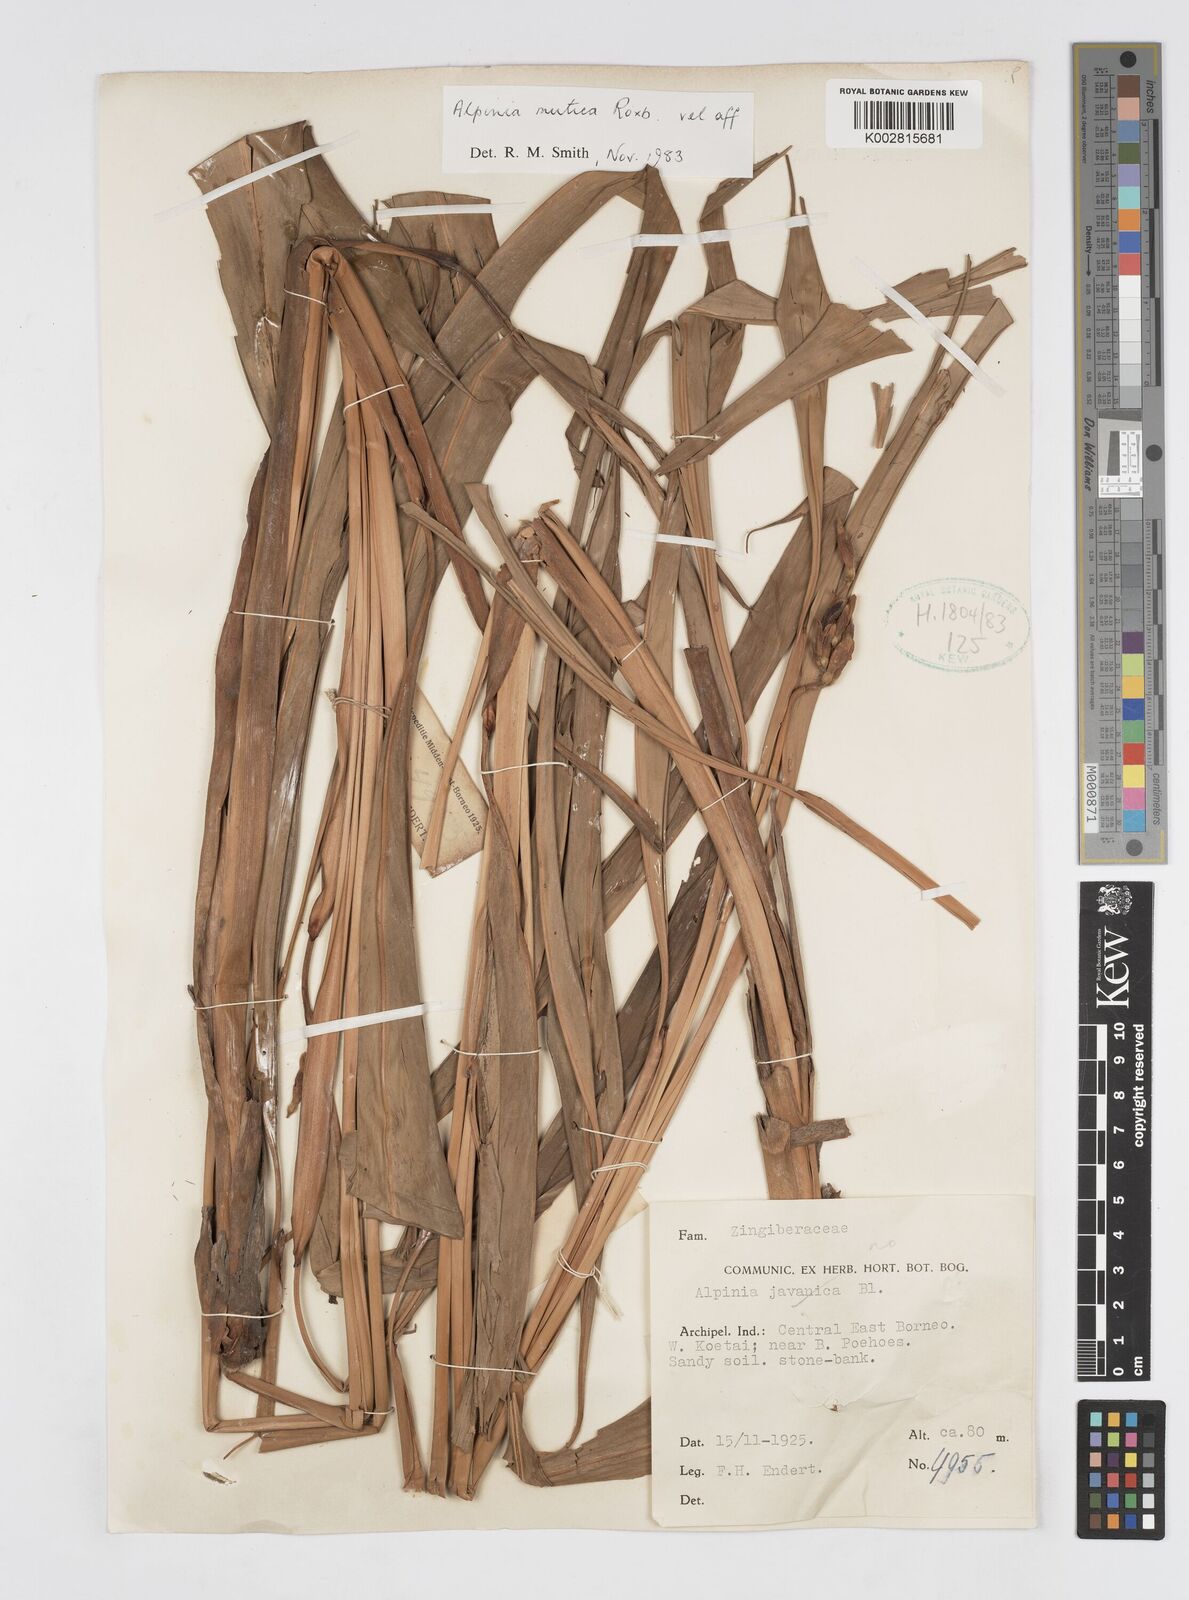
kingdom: Plantae
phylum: Tracheophyta
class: Liliopsida
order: Zingiberales
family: Zingiberaceae
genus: Alpinia
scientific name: Alpinia mutica
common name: Small shell ginger
